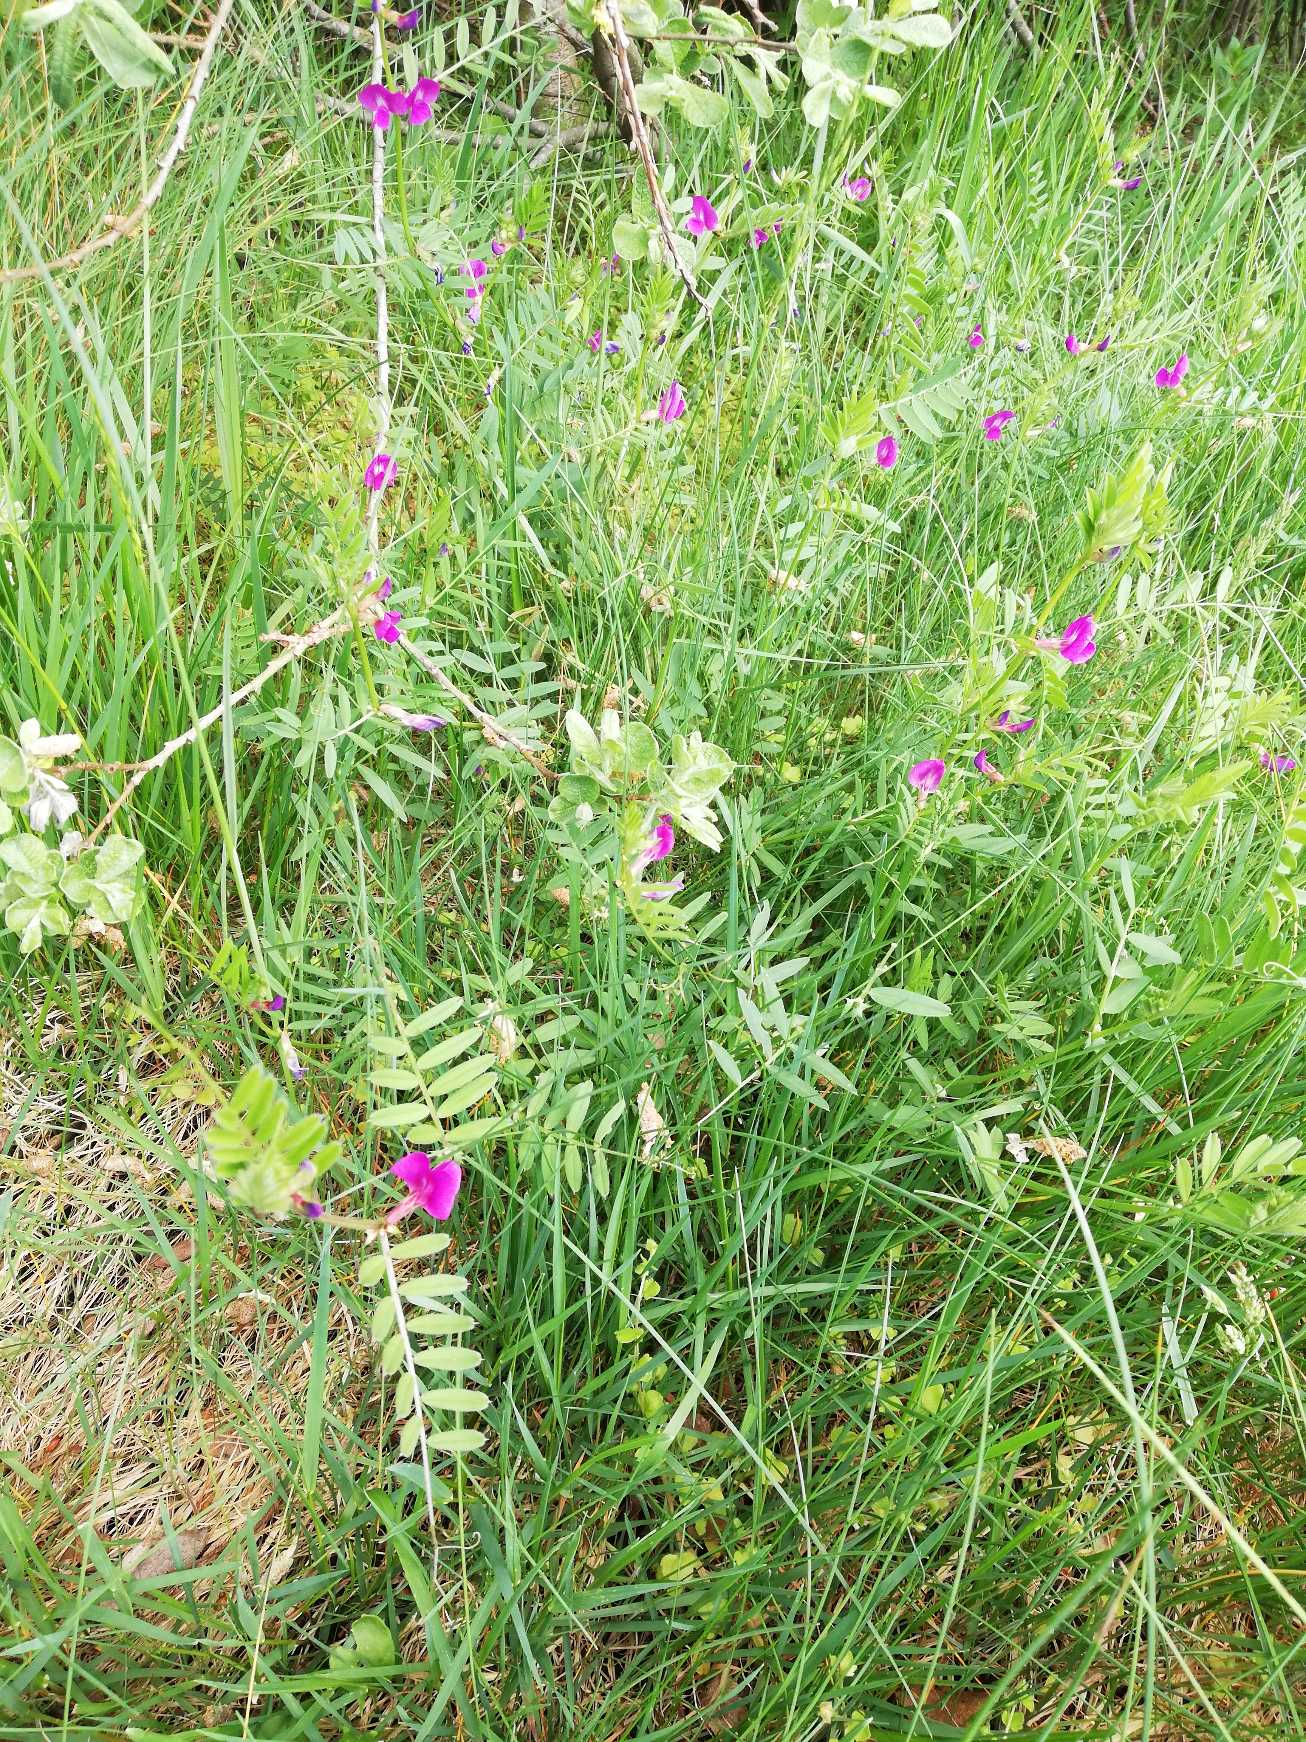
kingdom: Plantae
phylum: Tracheophyta
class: Magnoliopsida
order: Fabales
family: Fabaceae
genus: Vicia
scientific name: Vicia sativa
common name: Smalbladet vikke
